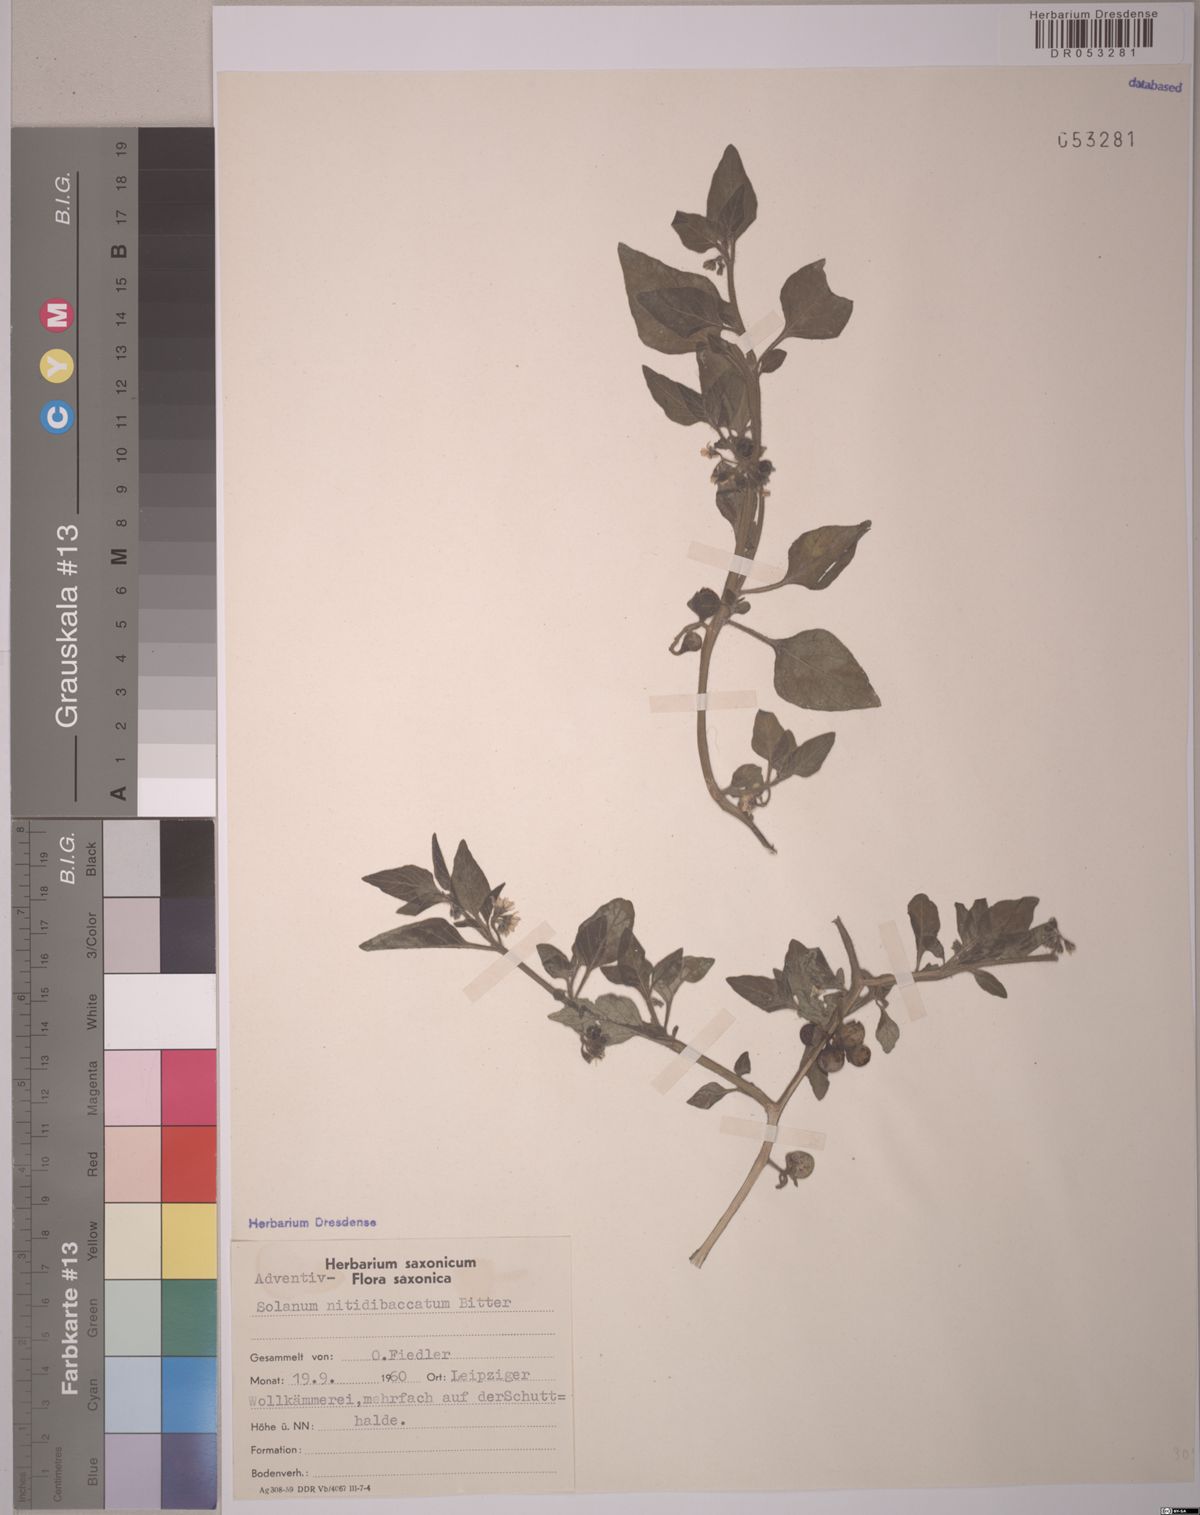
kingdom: Plantae
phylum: Tracheophyta
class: Magnoliopsida
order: Solanales
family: Solanaceae
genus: Solanum
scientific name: Solanum nitidibaccatum
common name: Hairy nightshade
